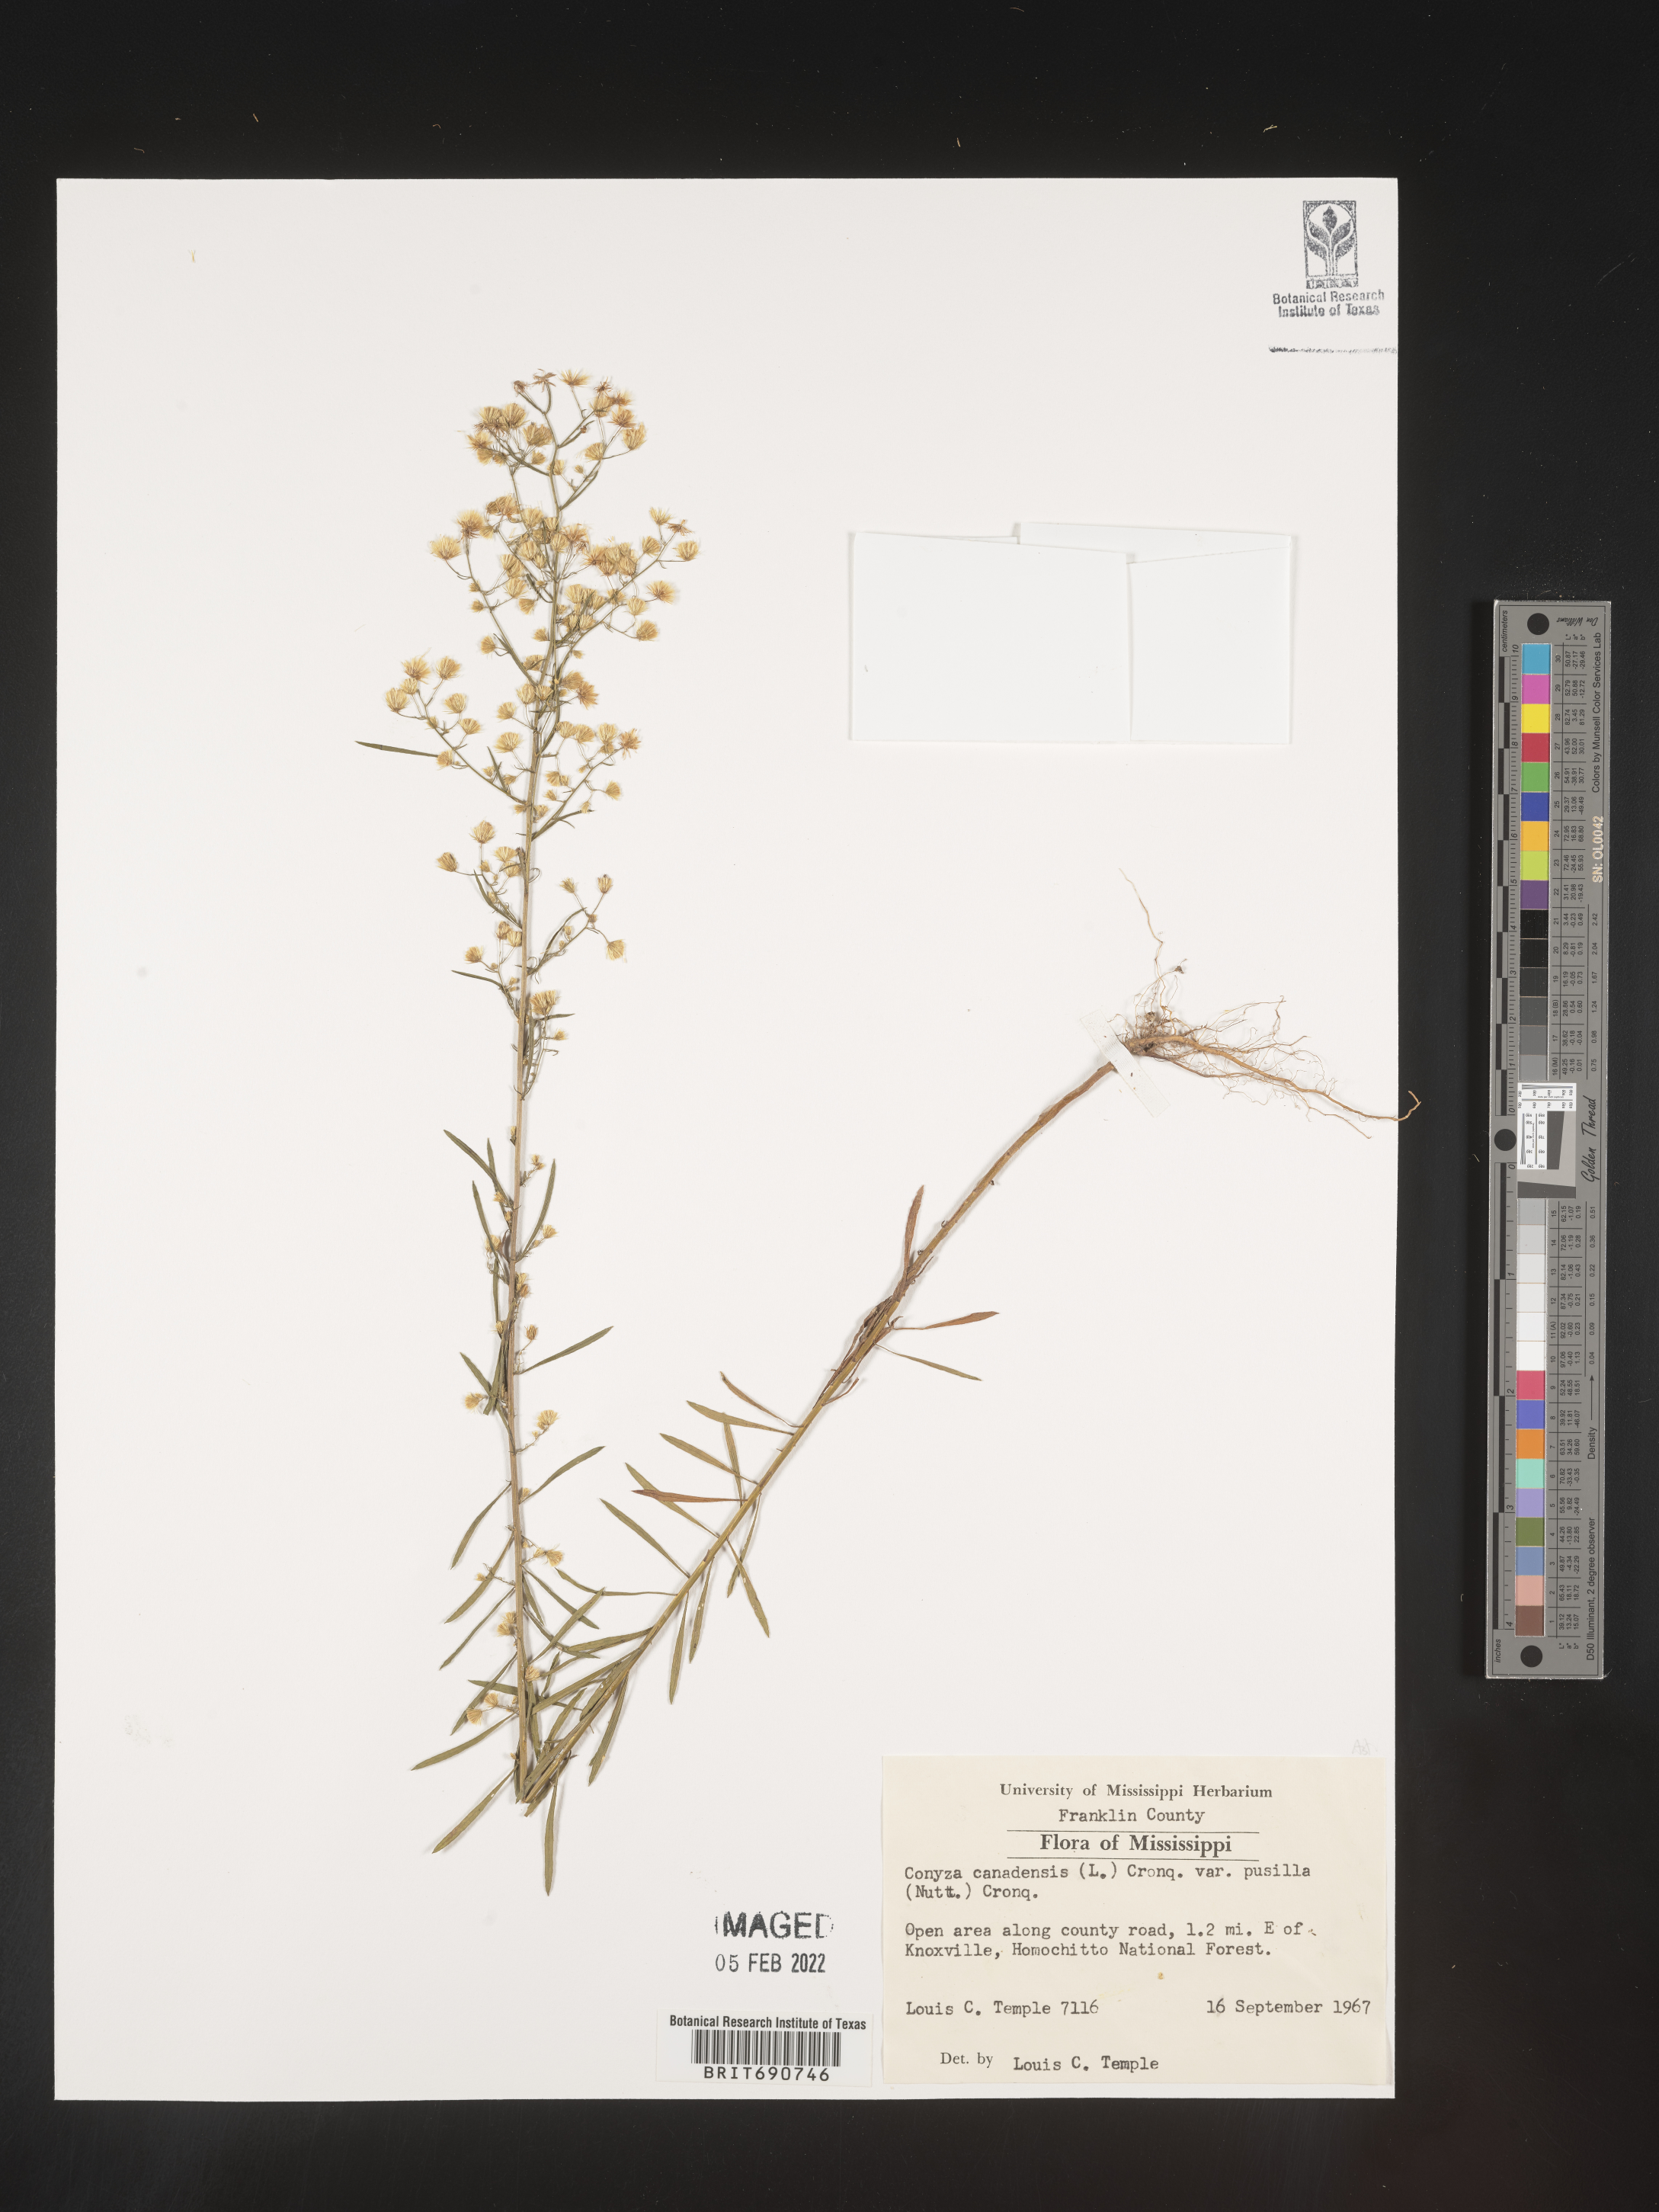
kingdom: Plantae
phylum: Tracheophyta
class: Magnoliopsida
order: Asterales
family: Asteraceae
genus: Erigeron
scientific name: Erigeron canadensis
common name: Canadian fleabane
